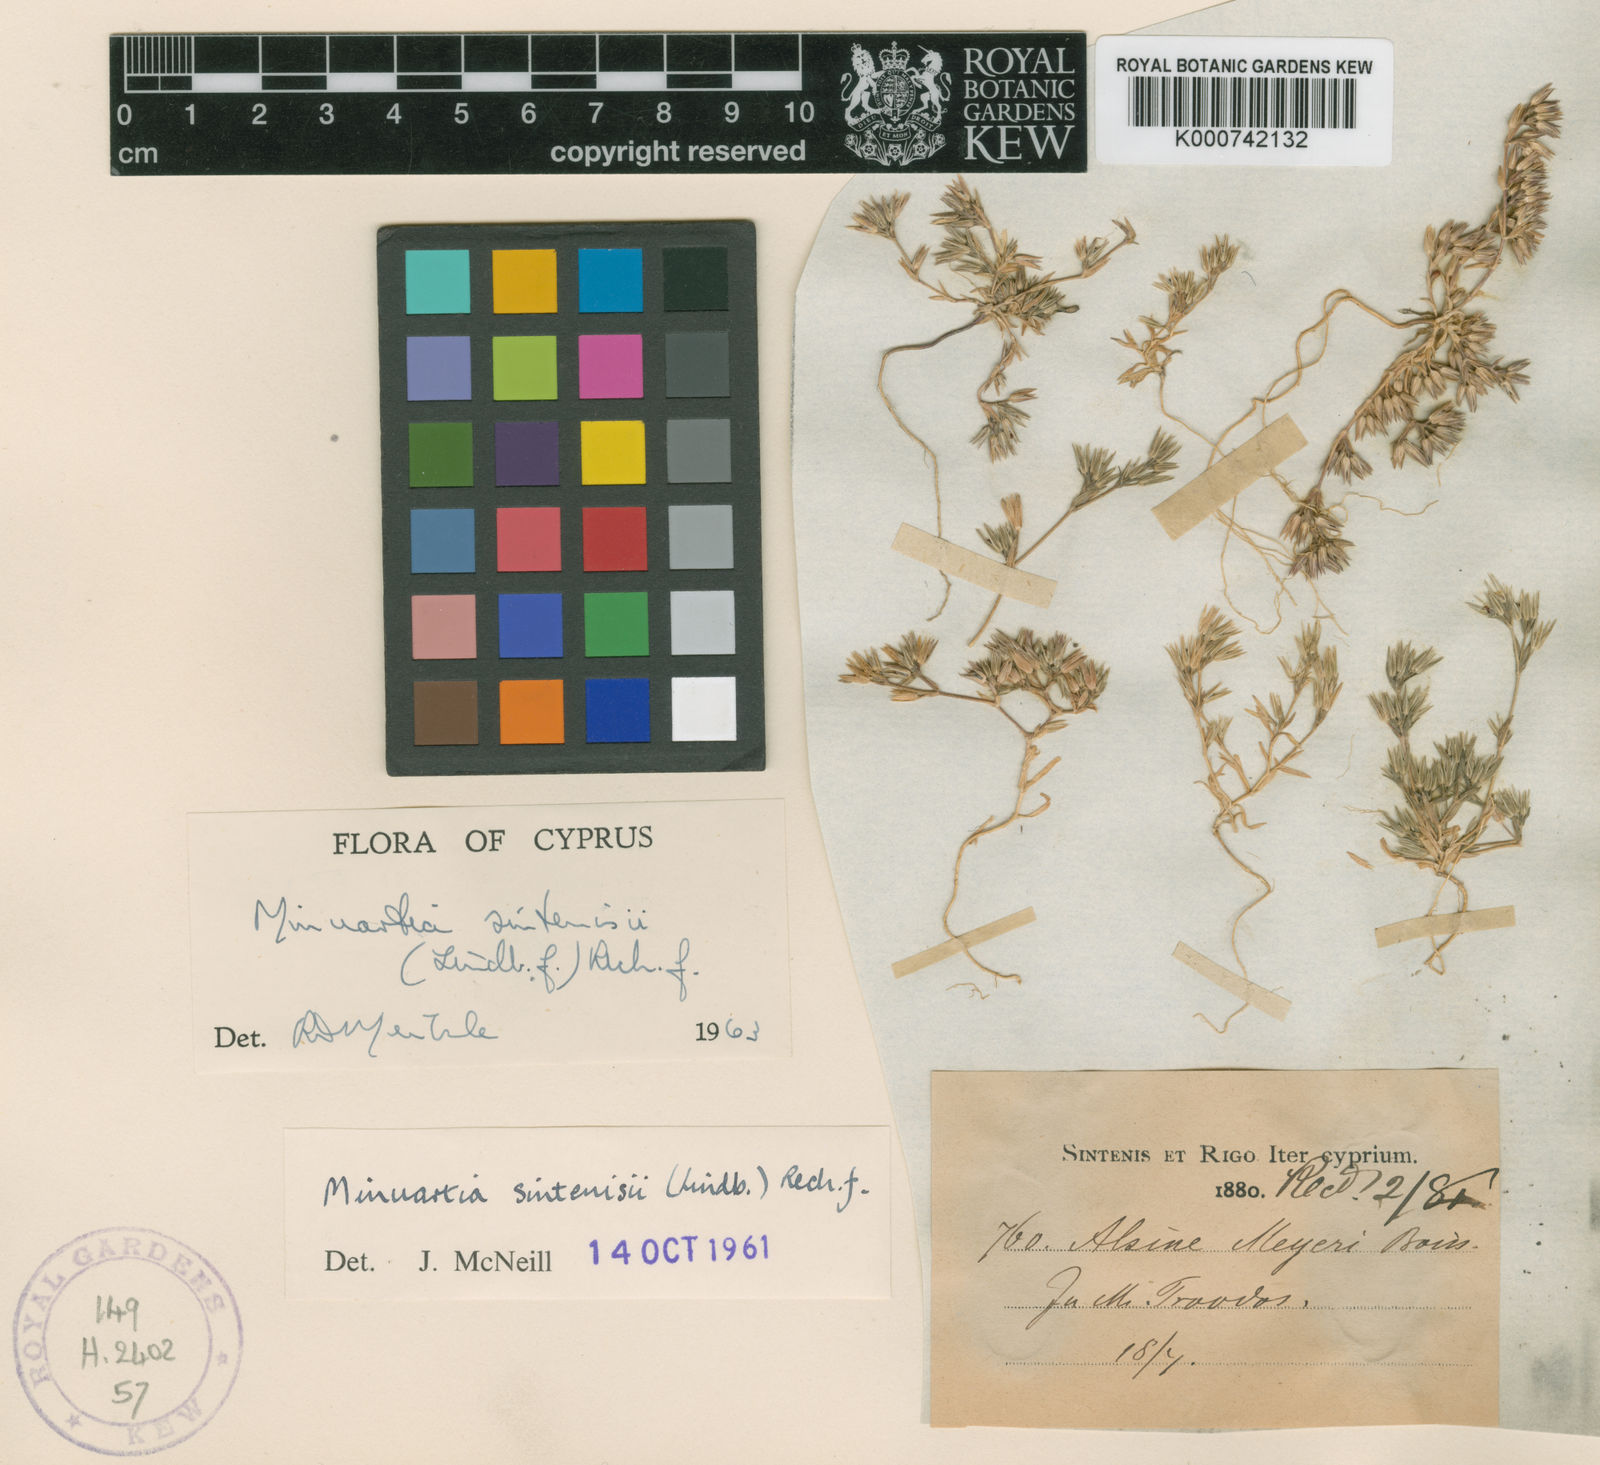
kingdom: Plantae
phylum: Tracheophyta
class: Magnoliopsida
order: Caryophyllales
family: Caryophyllaceae
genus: Minuartia
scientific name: Minuartia meyeri
